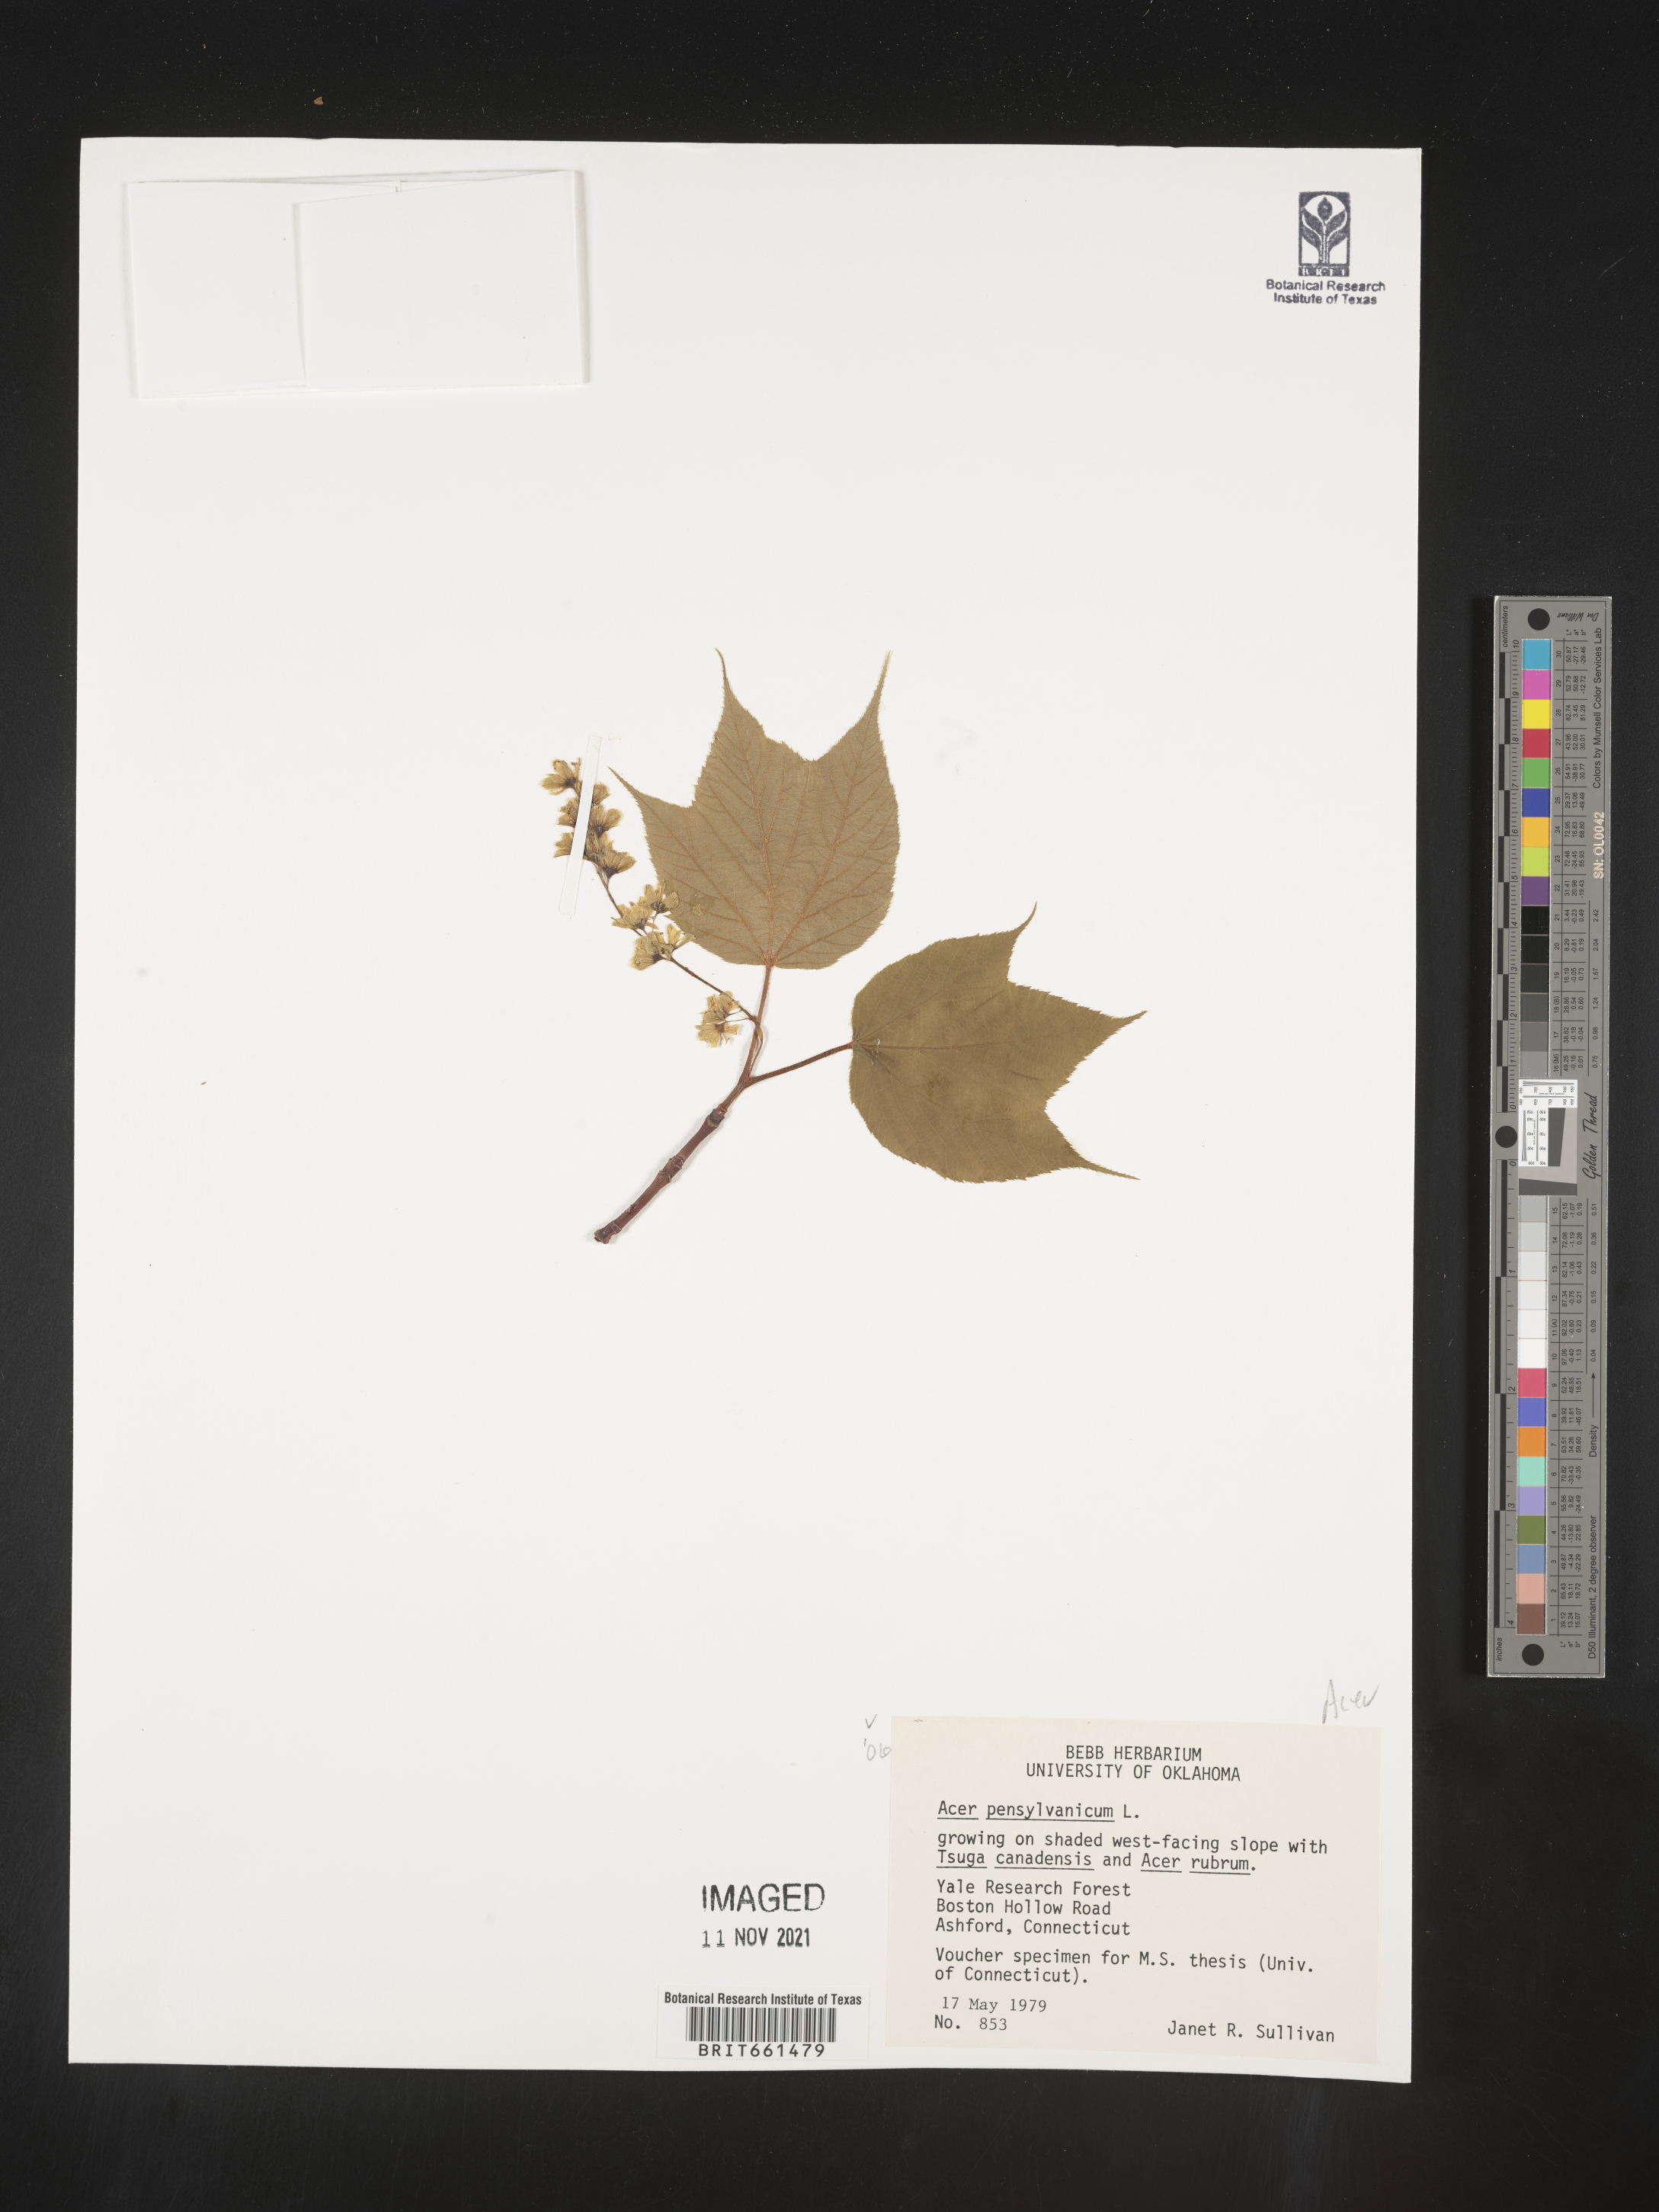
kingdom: Plantae
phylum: Tracheophyta
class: Magnoliopsida
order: Sapindales
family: Sapindaceae
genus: Acer
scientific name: Acer pensylvanicum
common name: Moosewood
